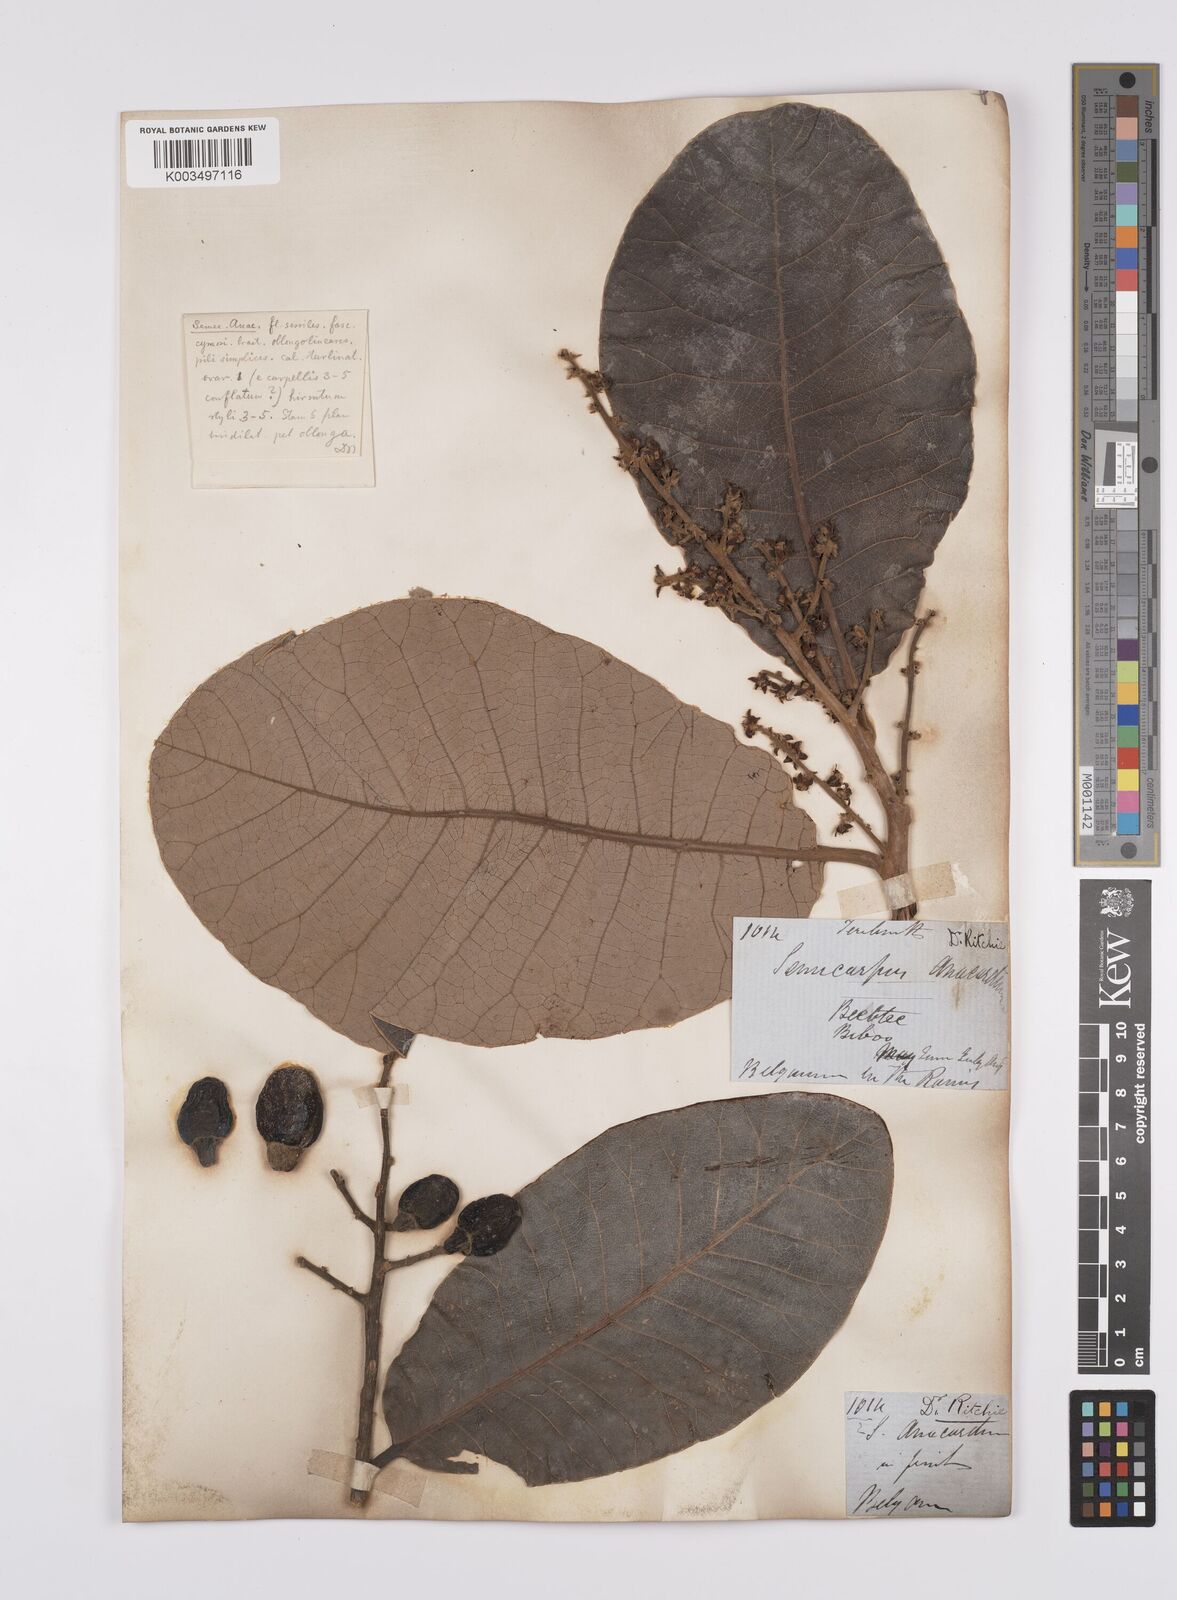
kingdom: Plantae
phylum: Tracheophyta
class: Magnoliopsida
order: Sapindales
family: Anacardiaceae
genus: Semecarpus
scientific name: Semecarpus anacardium
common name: Marking nut-tree
